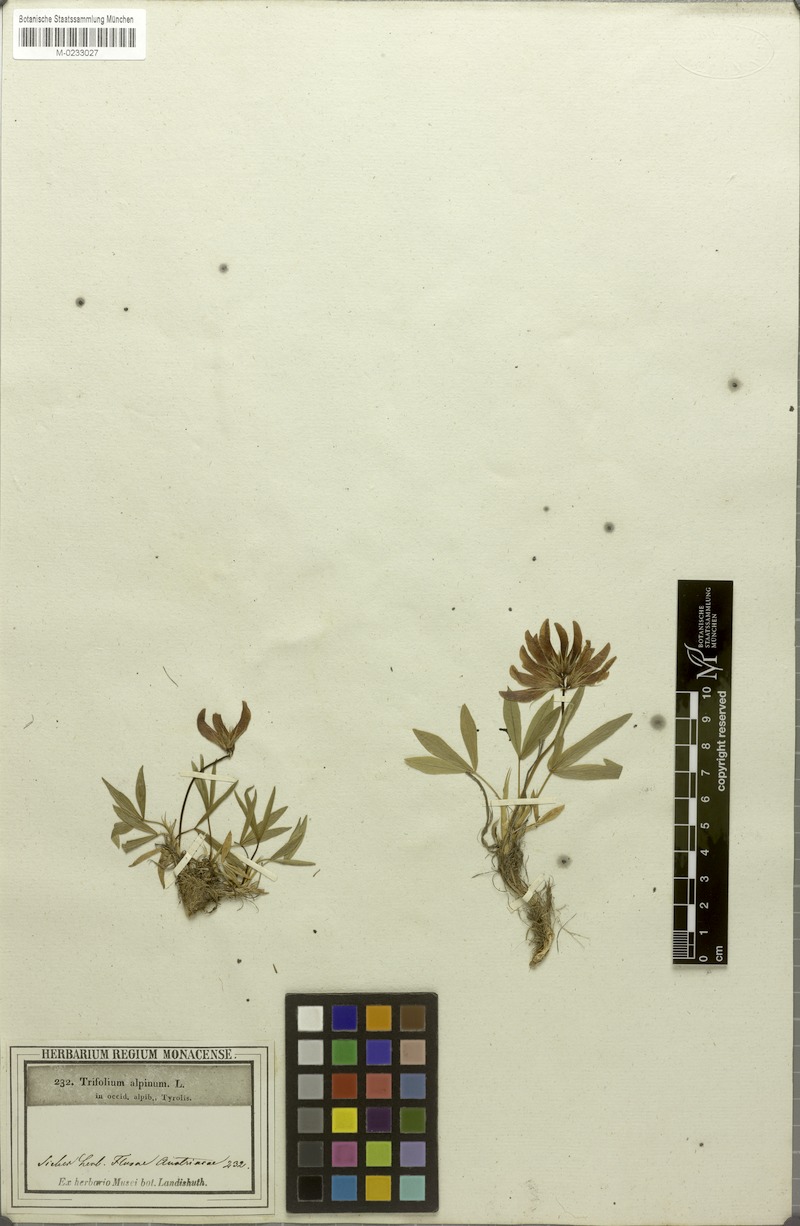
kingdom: Plantae
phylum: Tracheophyta
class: Magnoliopsida
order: Fabales
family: Fabaceae
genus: Trifolium
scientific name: Trifolium alpinum
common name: Alpine clover
